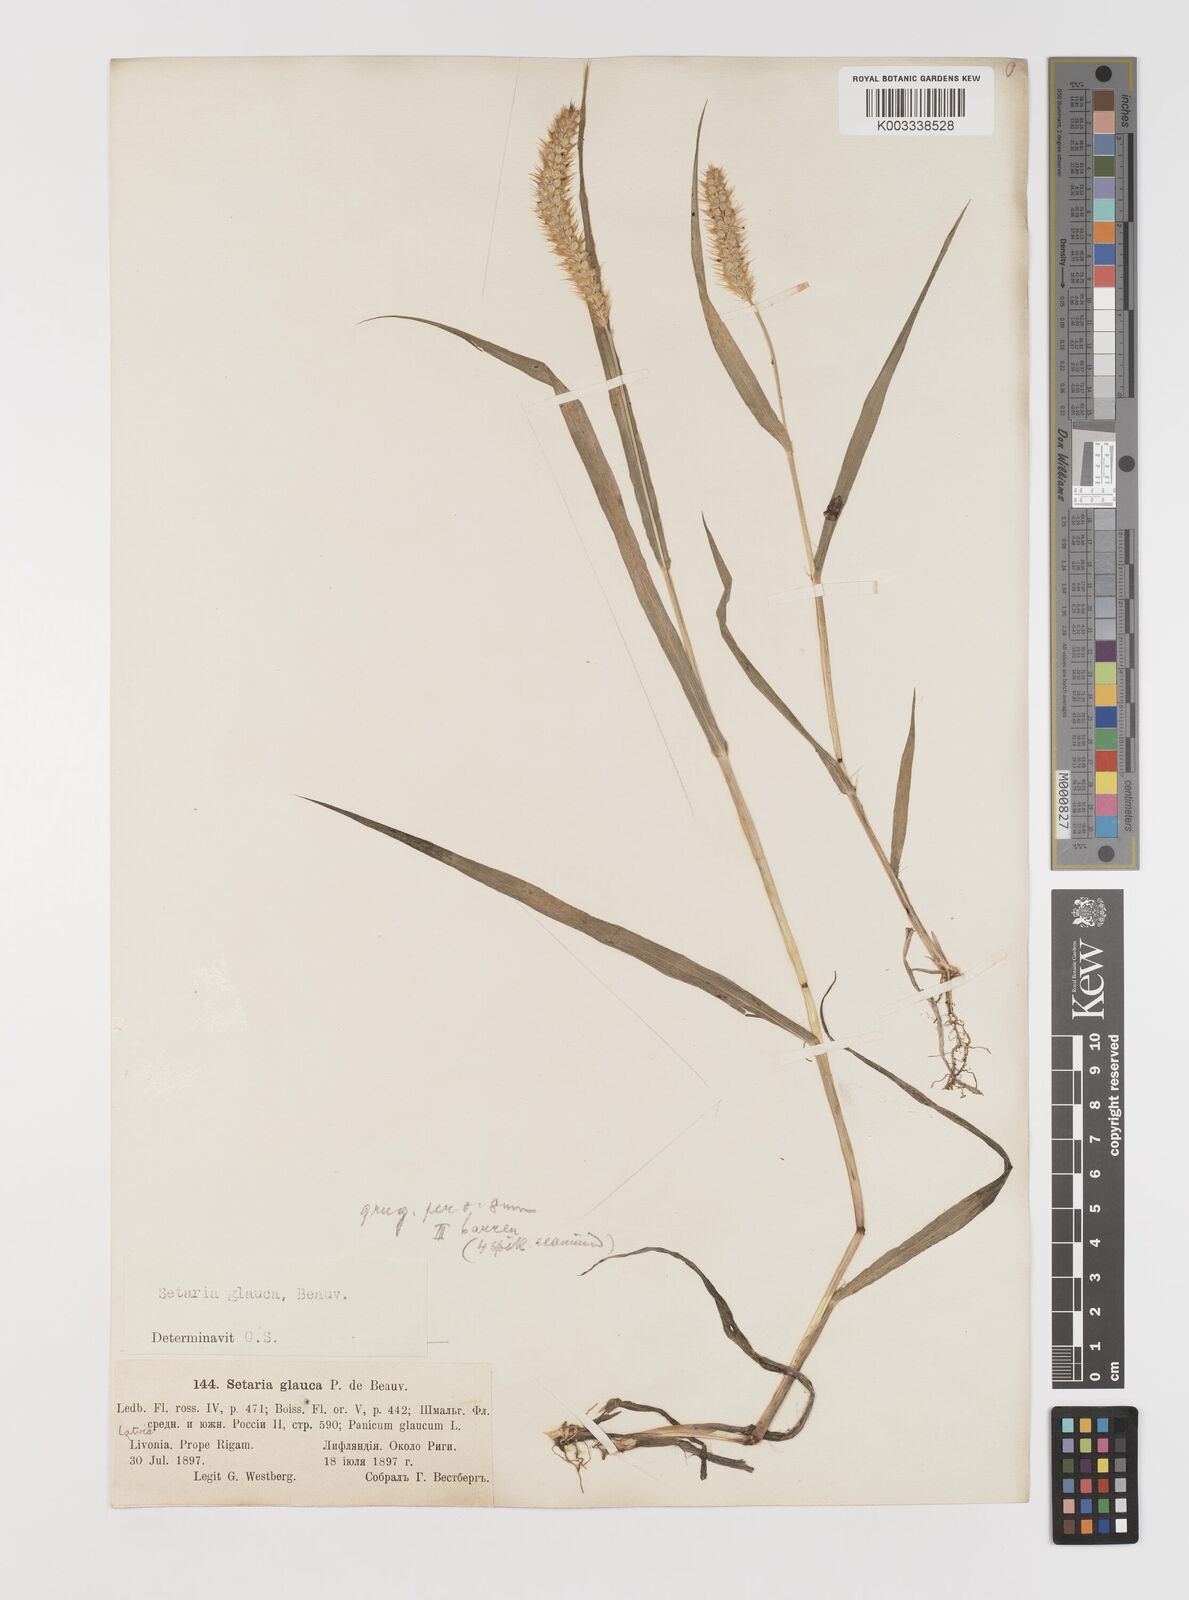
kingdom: Plantae
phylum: Tracheophyta
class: Liliopsida
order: Poales
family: Poaceae
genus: Cenchrus
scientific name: Cenchrus americanus
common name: Pearl millet
